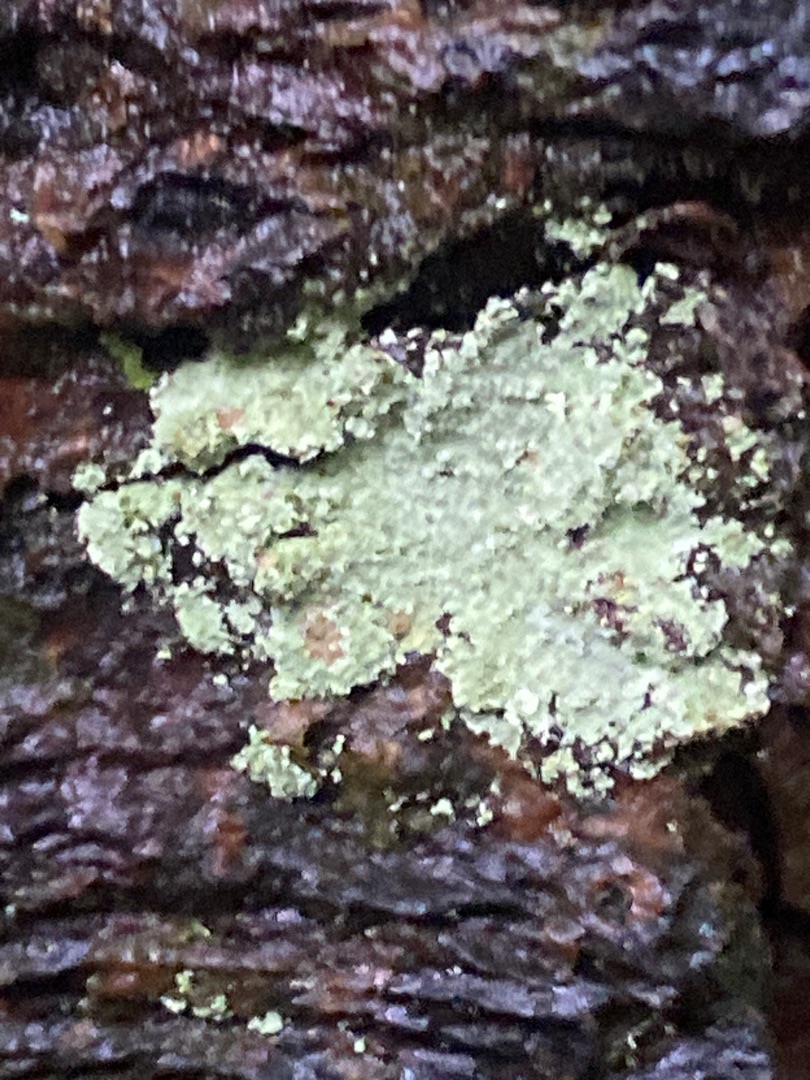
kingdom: Fungi
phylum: Ascomycota
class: Lecanoromycetes
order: Lecanorales
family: Stereocaulaceae
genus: Lepraria
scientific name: Lepraria
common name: Støvlav
